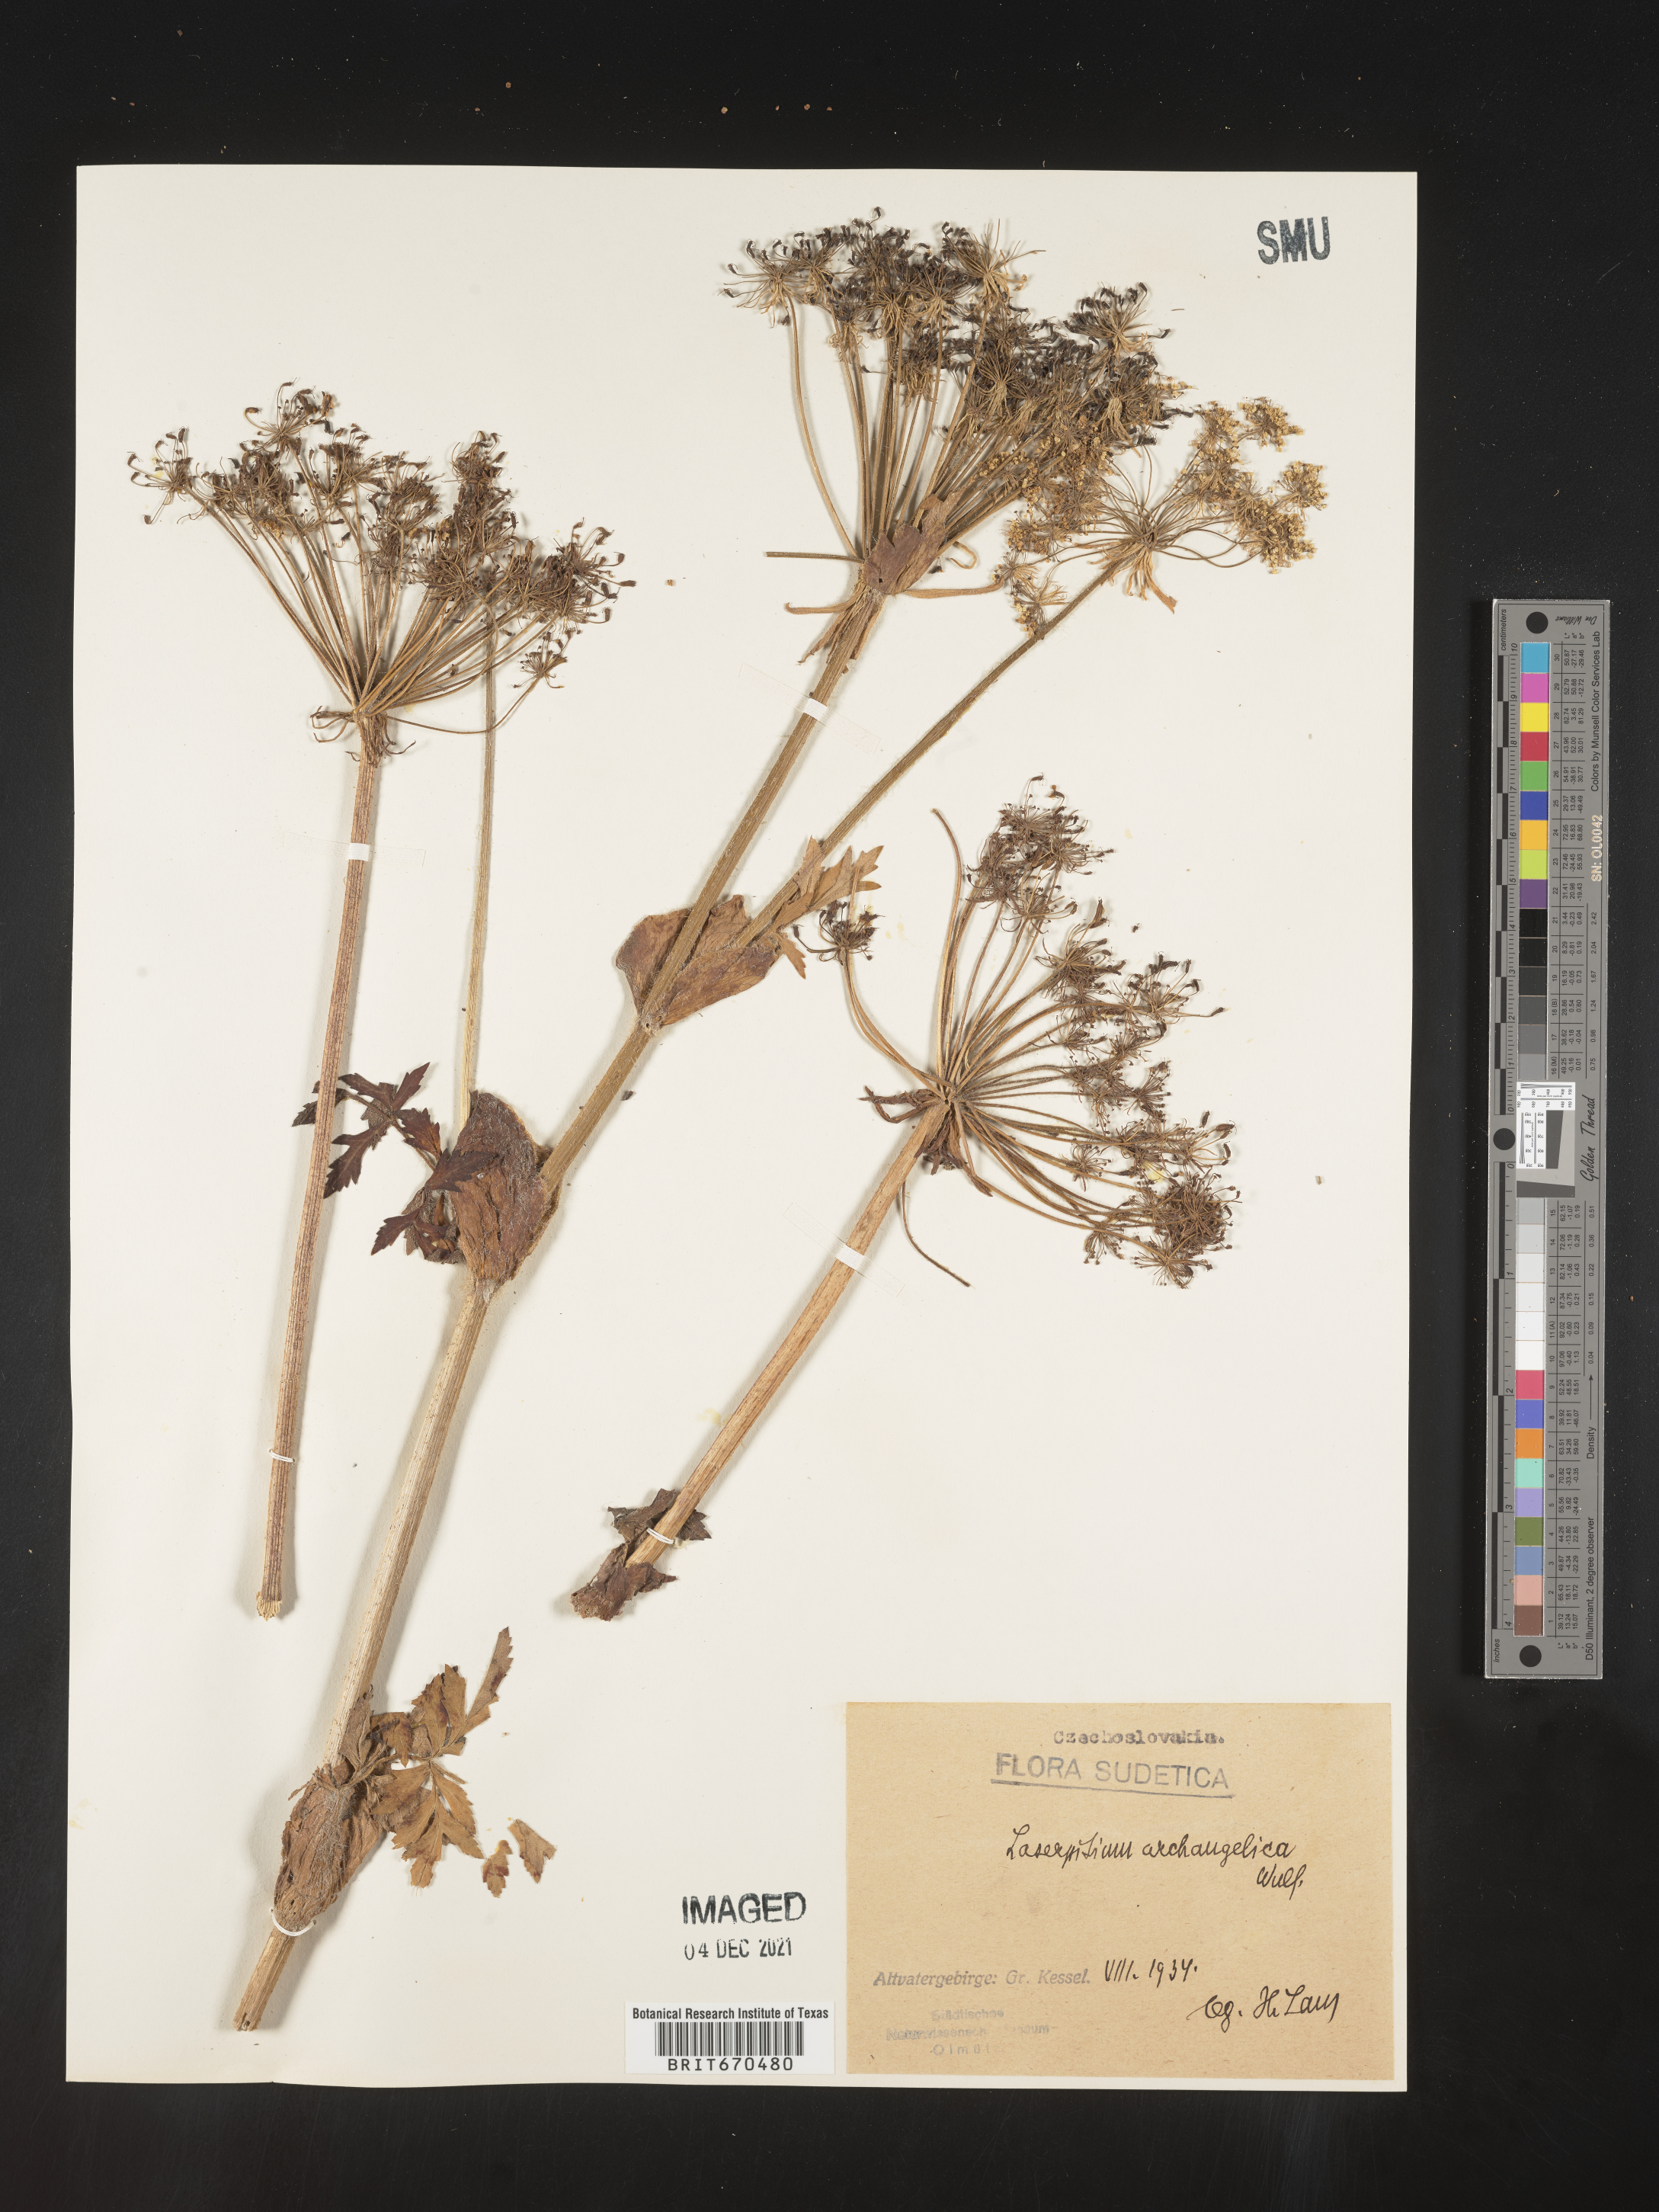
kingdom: Plantae
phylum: Tracheophyta
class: Magnoliopsida
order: Apiales
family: Apiaceae
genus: Laserpitium
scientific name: Laserpitium
